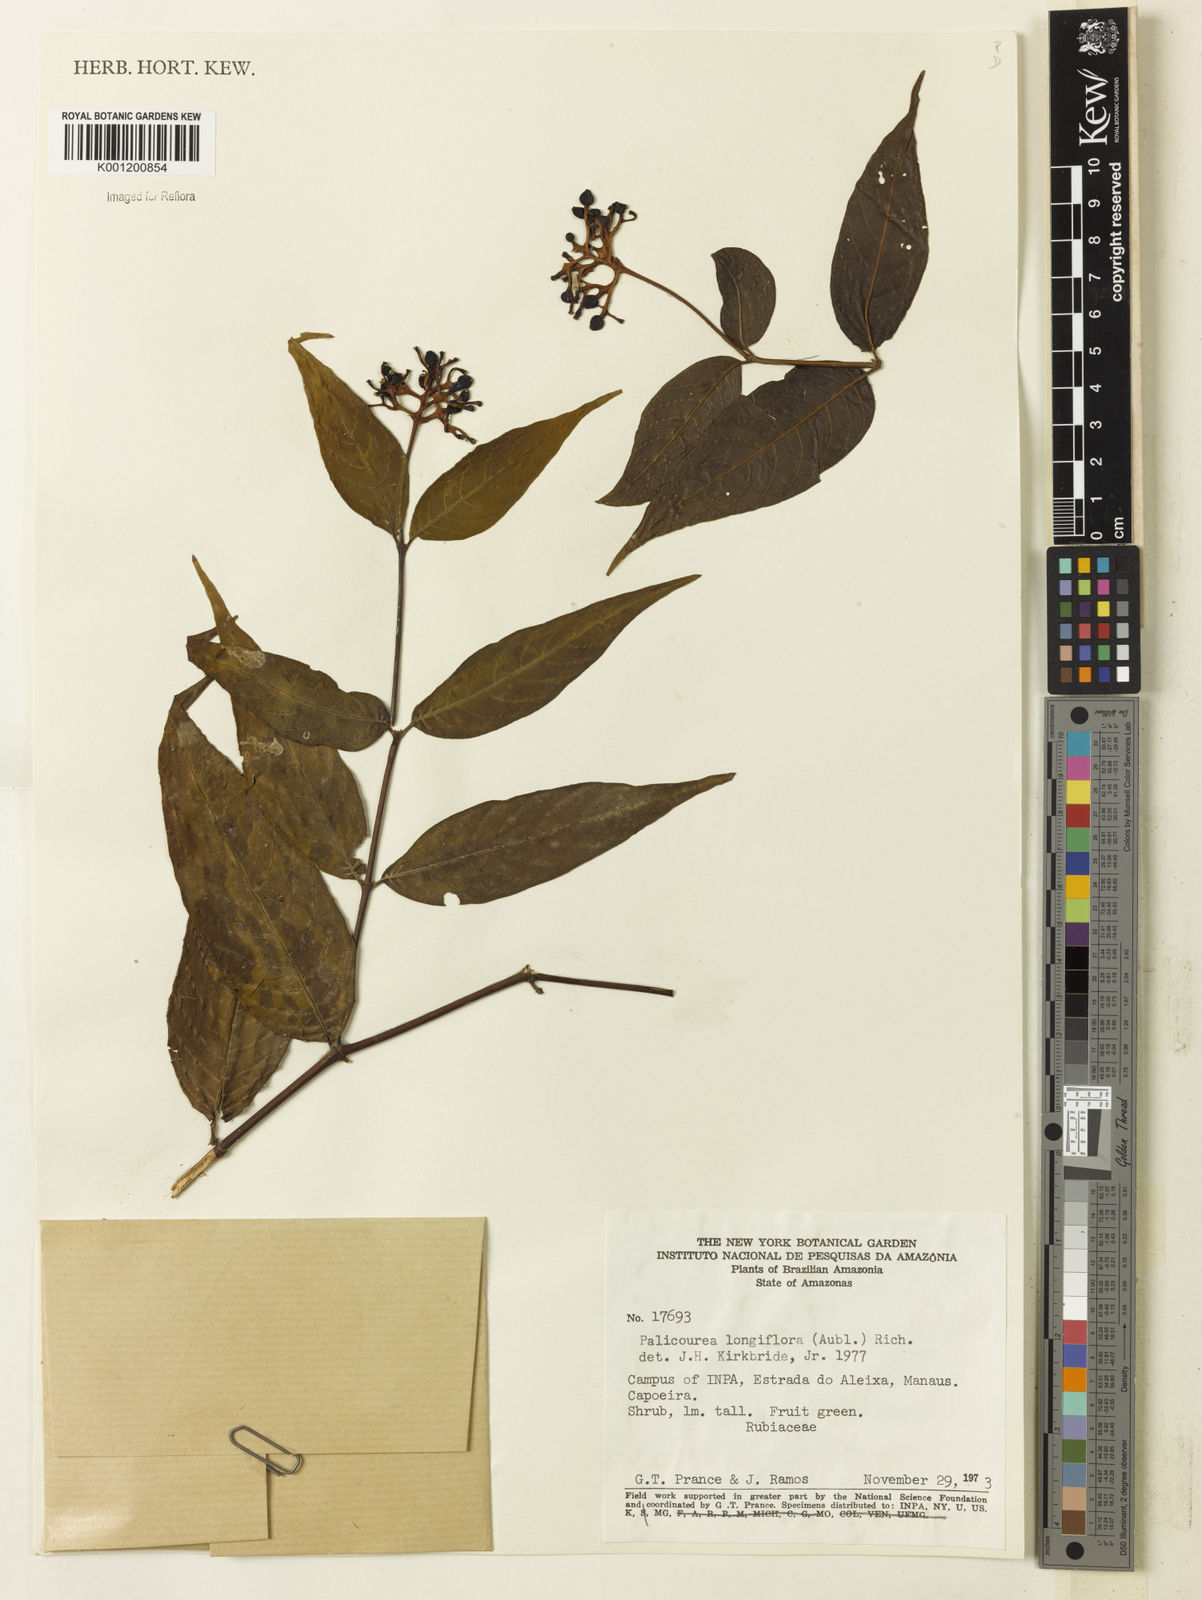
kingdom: Plantae
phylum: Tracheophyta
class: Magnoliopsida
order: Gentianales
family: Rubiaceae
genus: Palicourea
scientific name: Palicourea longiflora
